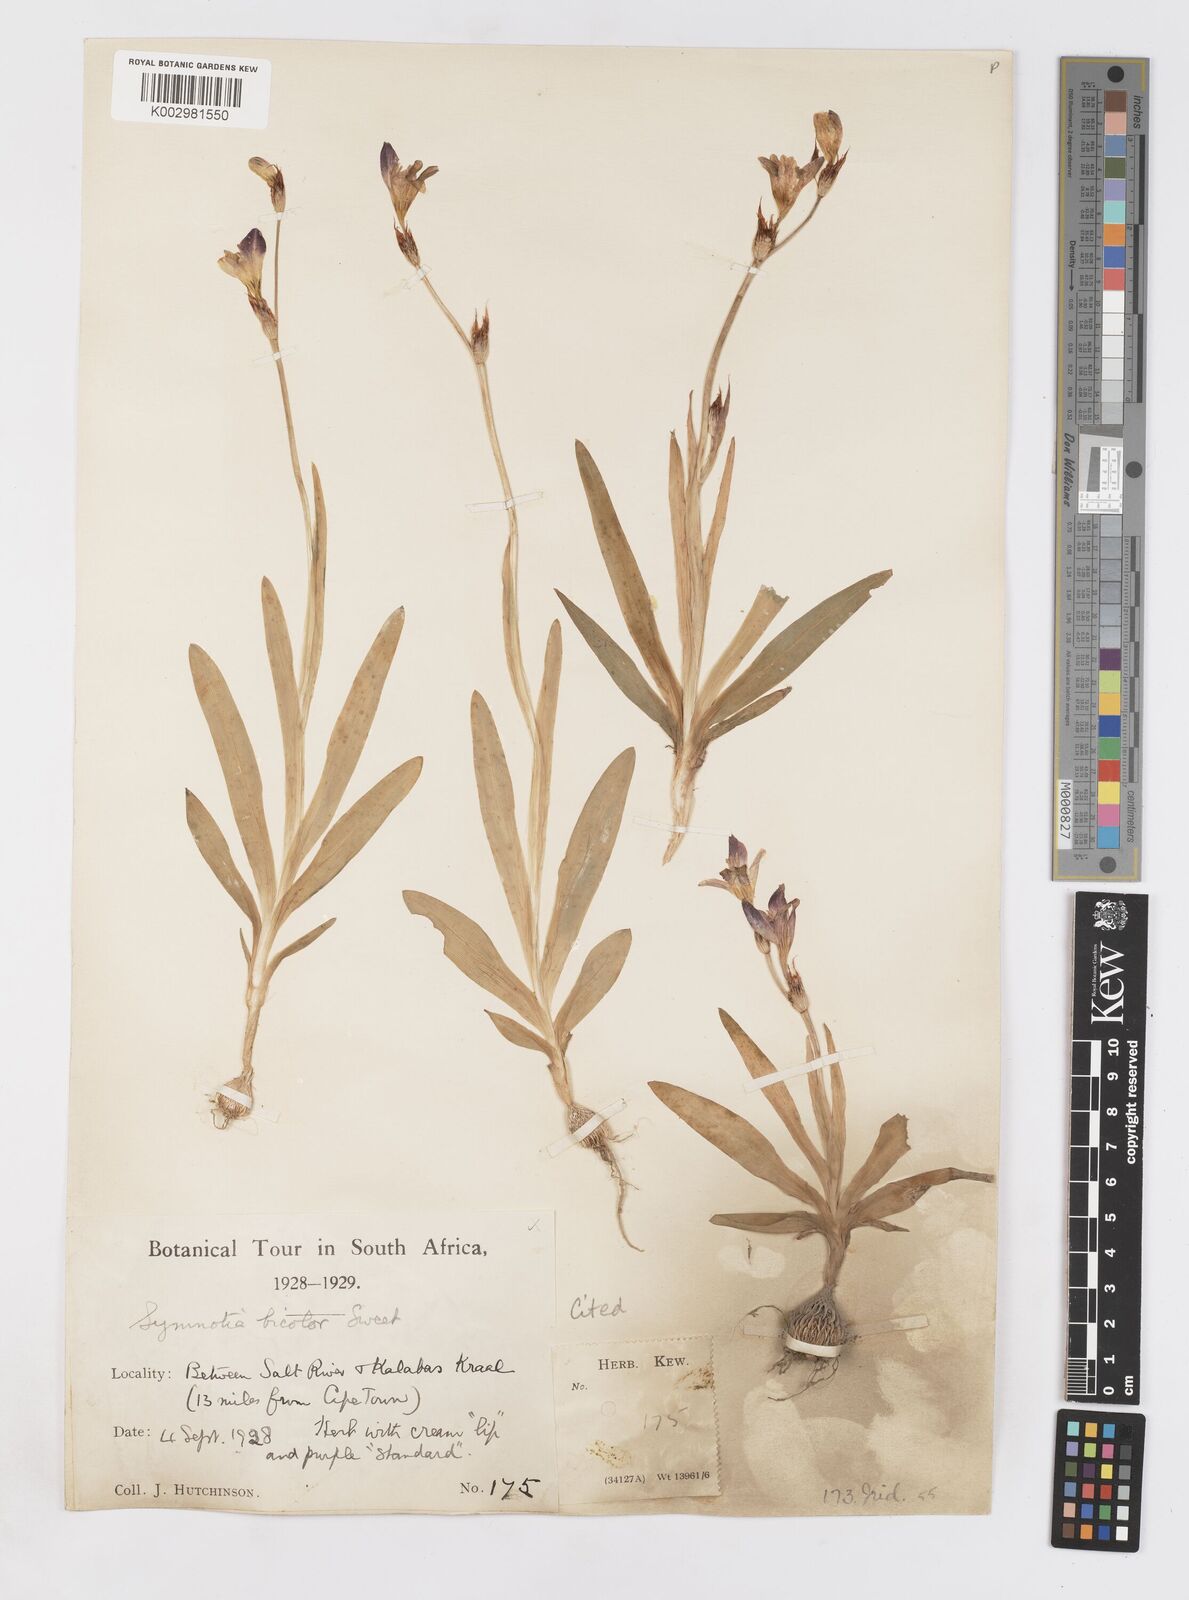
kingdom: Plantae
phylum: Tracheophyta
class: Liliopsida
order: Asparagales
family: Iridaceae
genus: Sparaxis
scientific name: Sparaxis villosa
